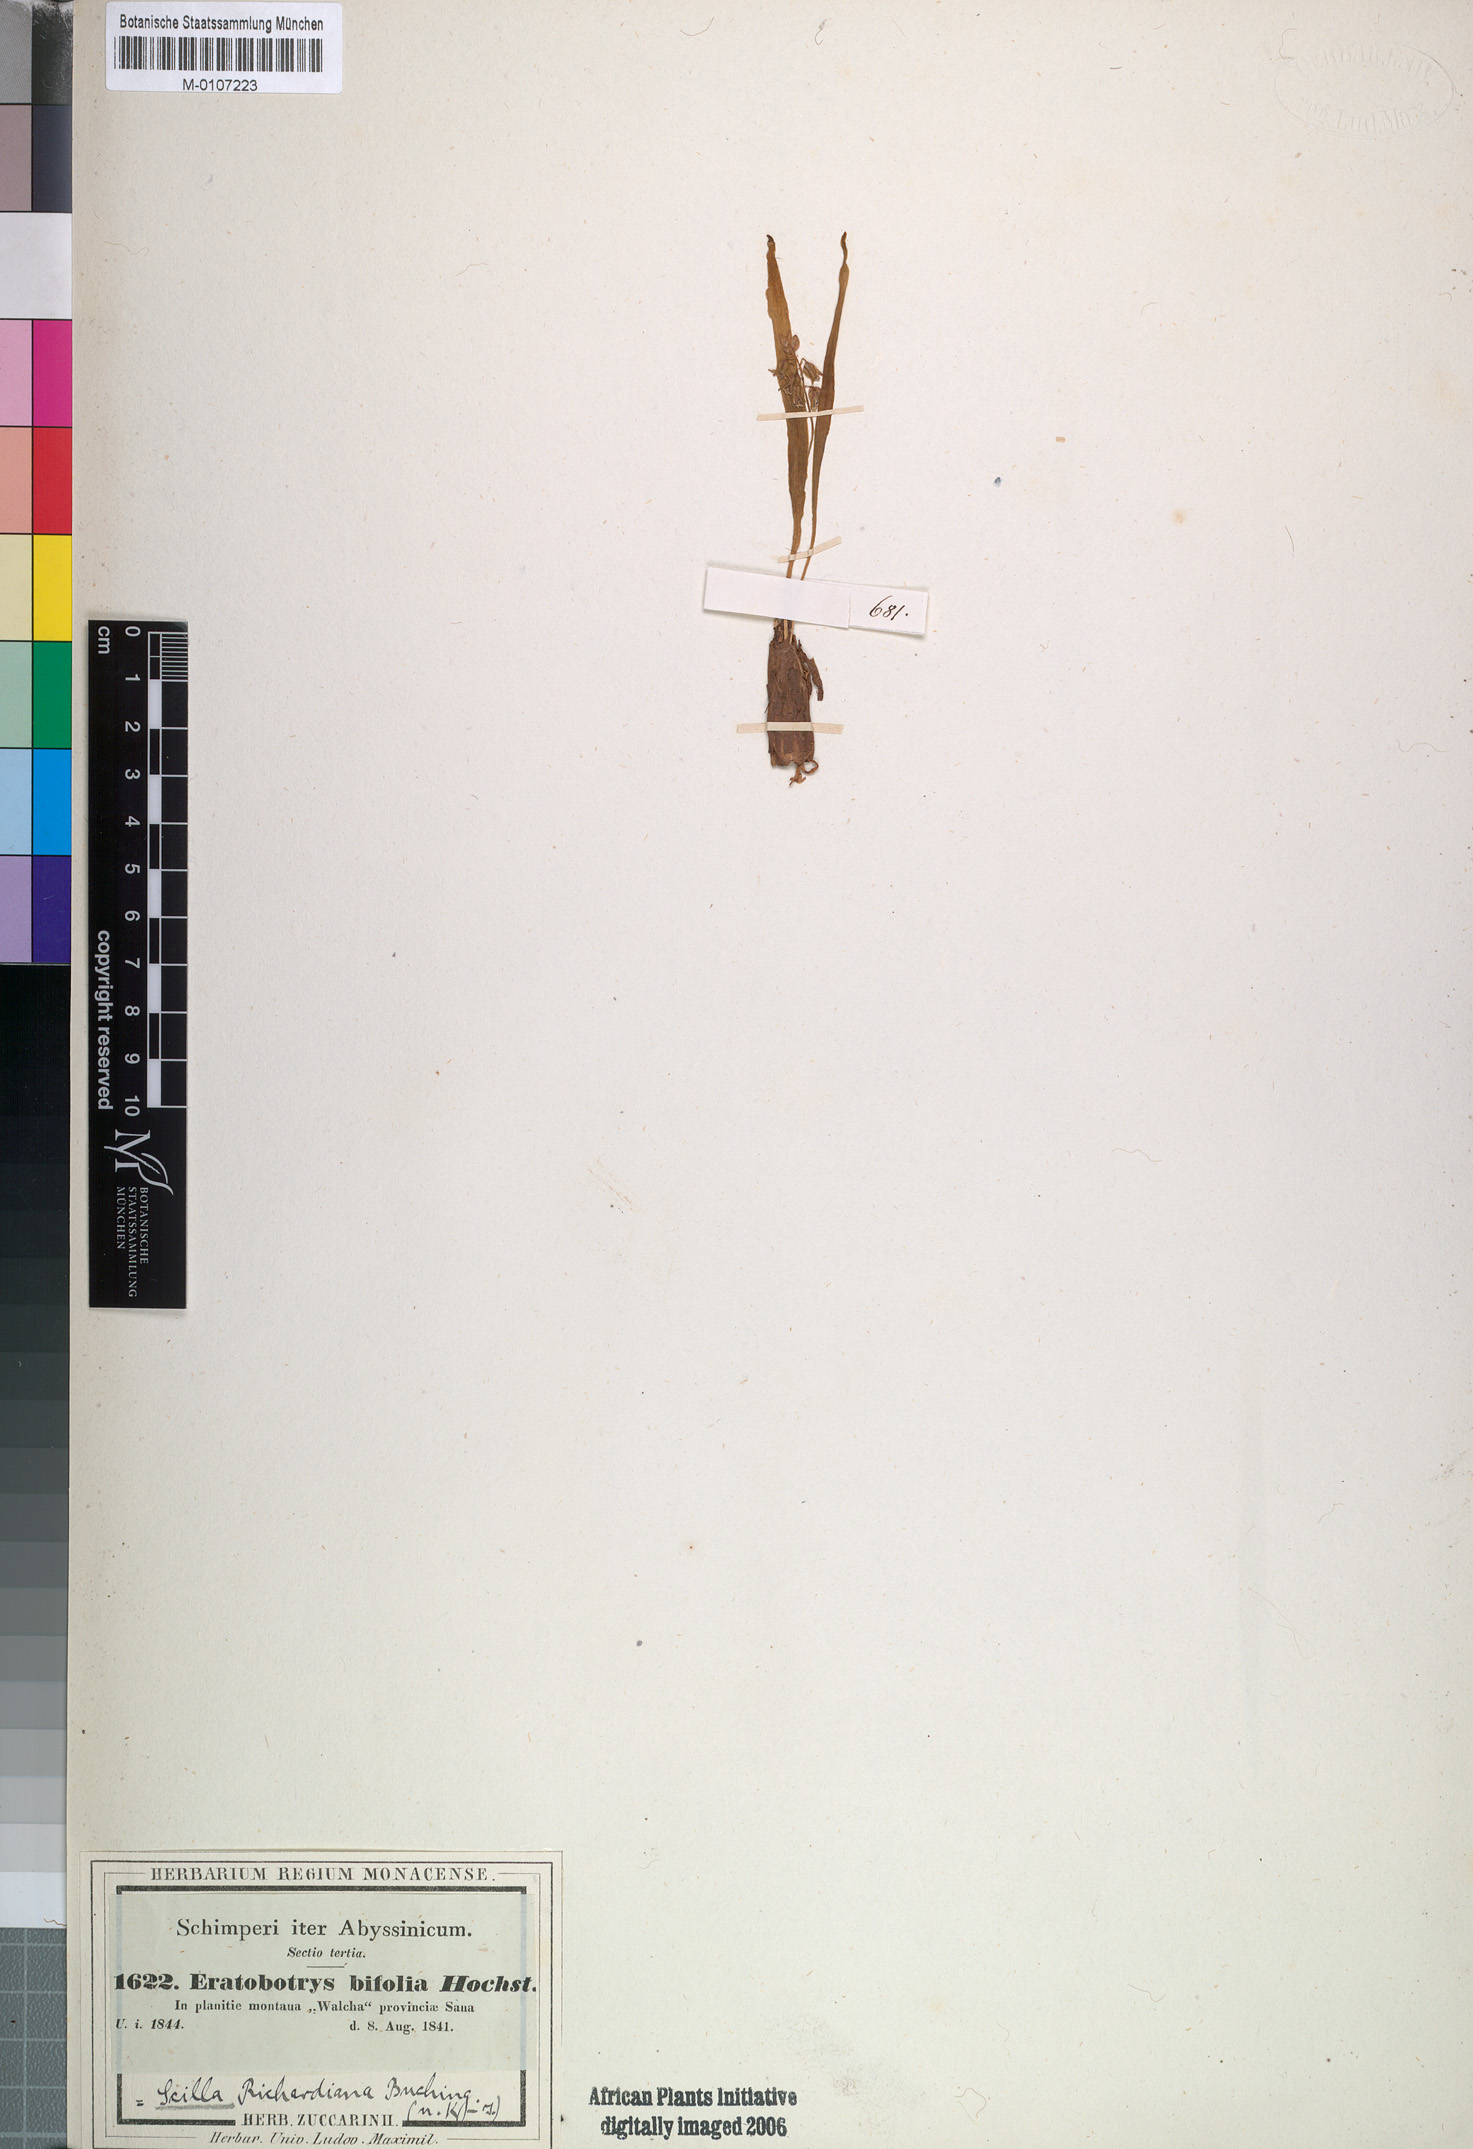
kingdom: Plantae
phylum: Tracheophyta
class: Liliopsida
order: Asparagales
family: Asparagaceae
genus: Ledebouria
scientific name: Ledebouria revoluta
